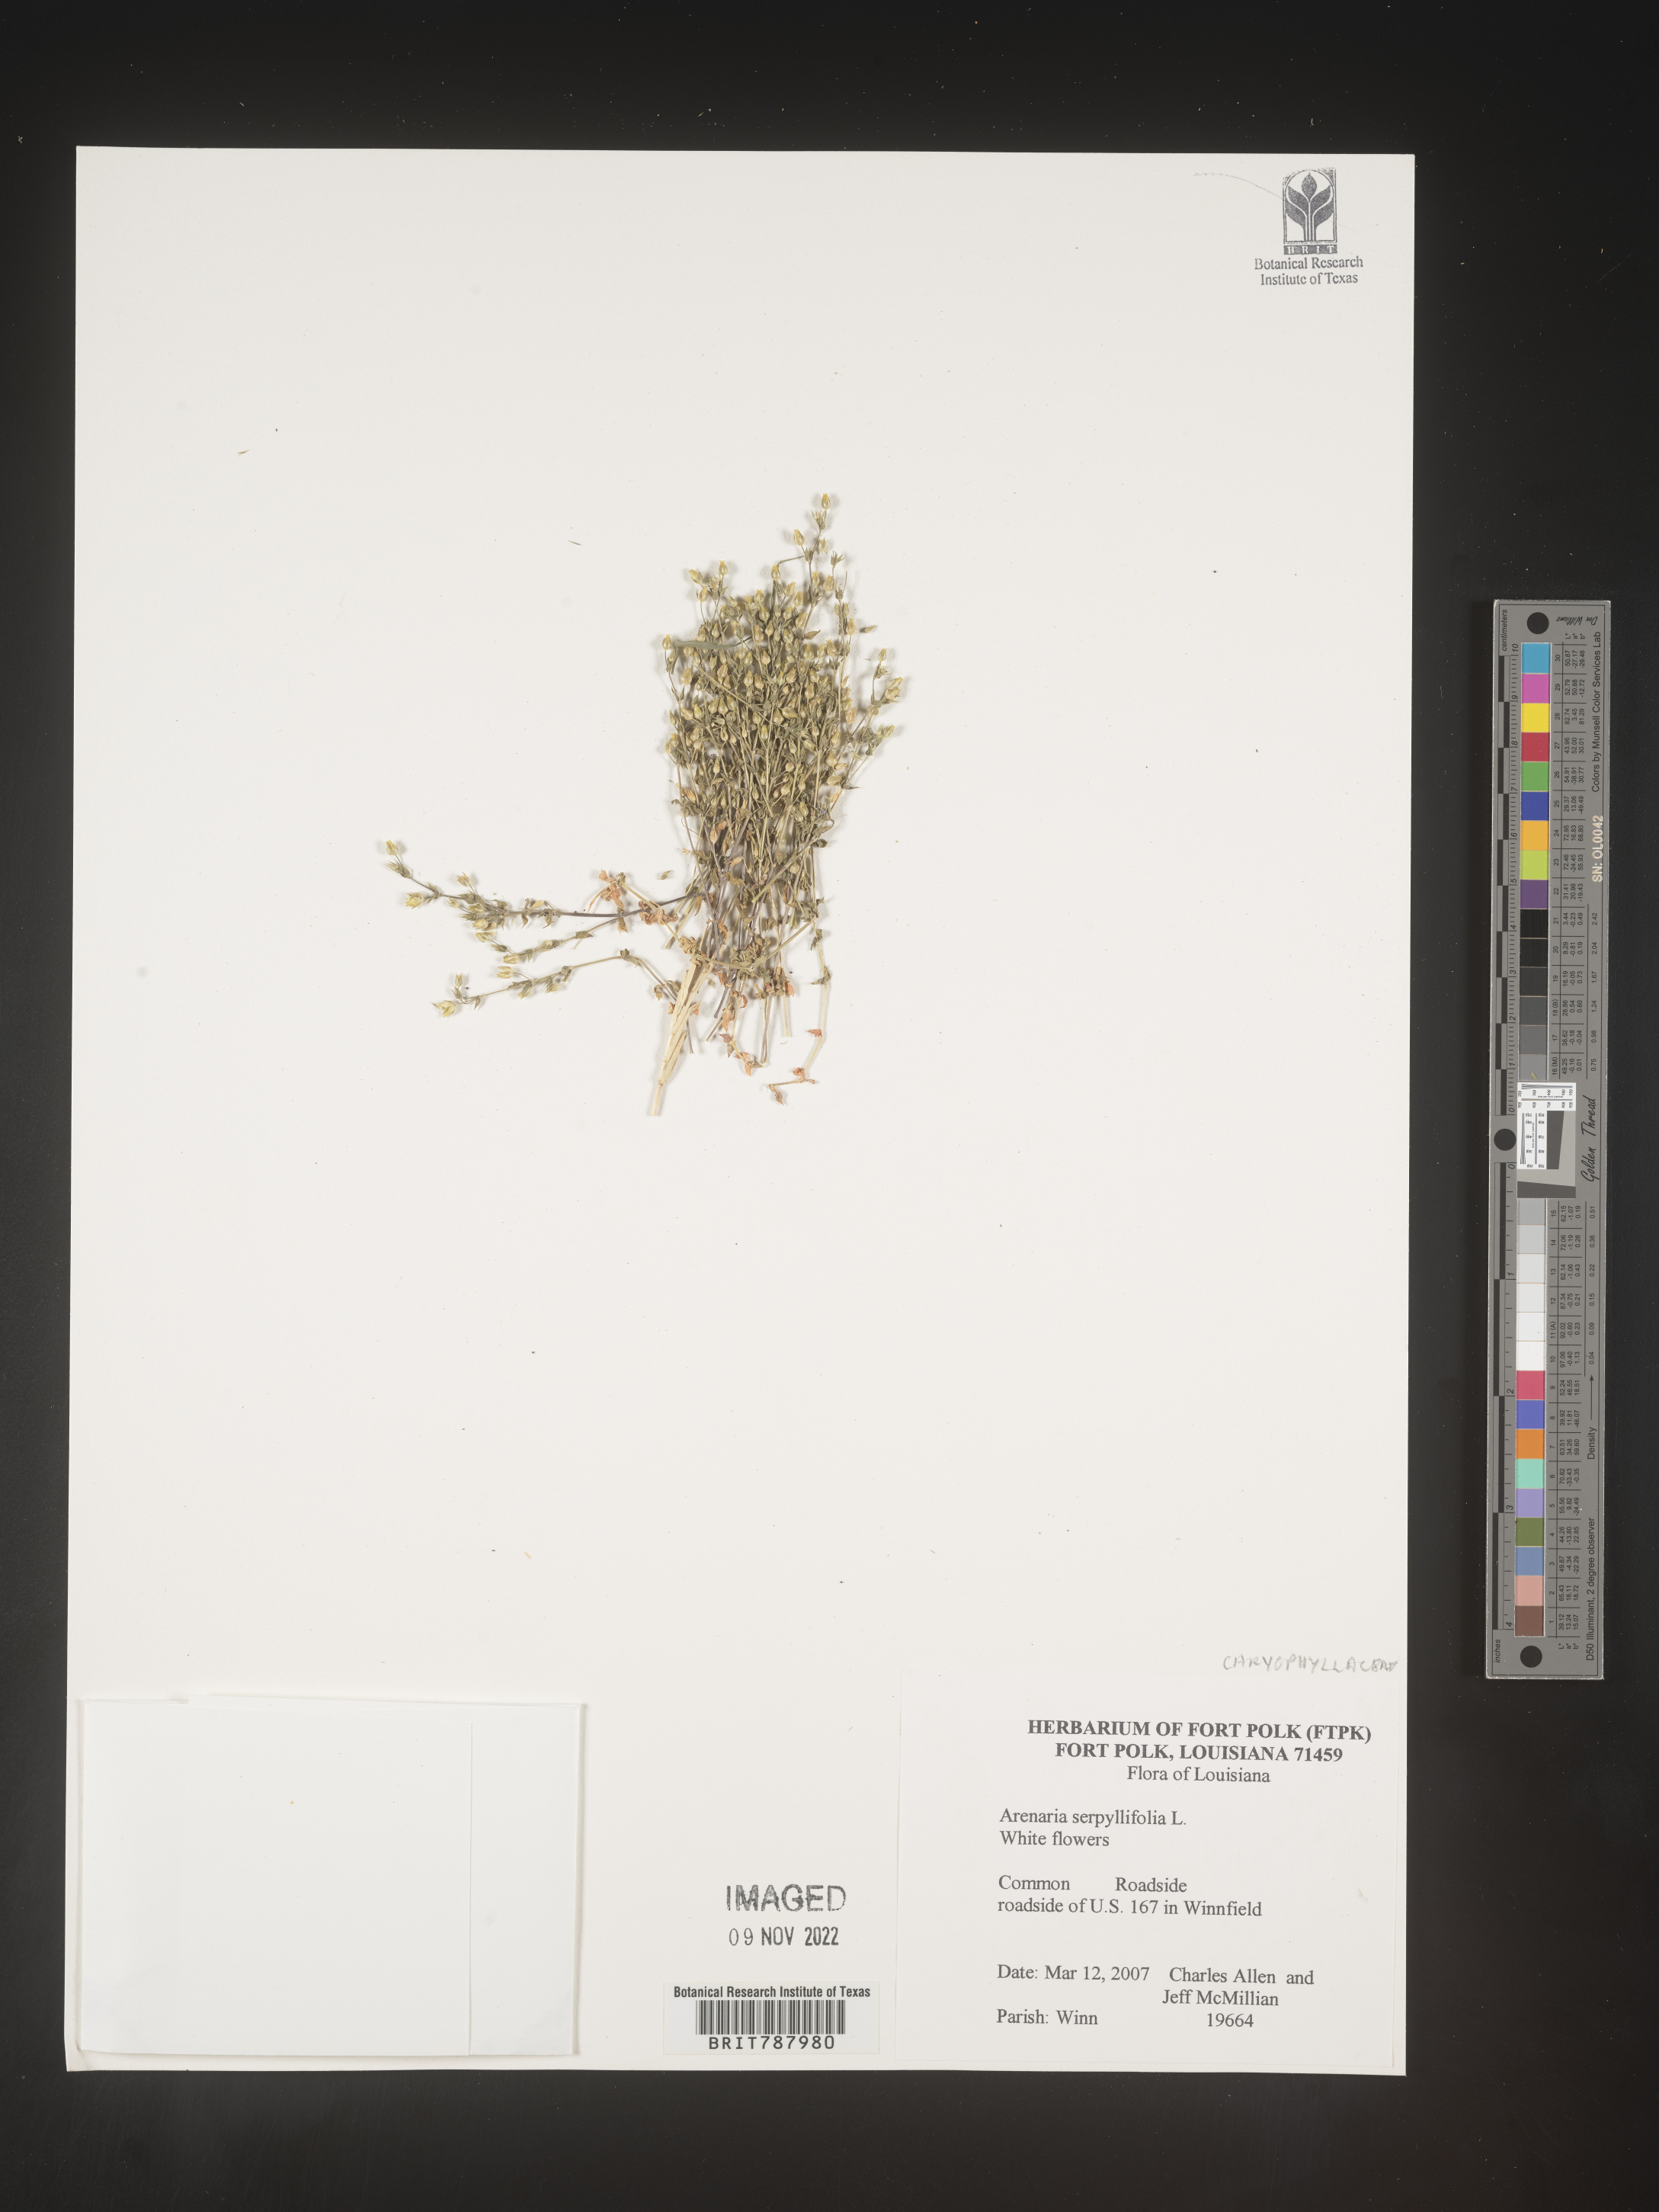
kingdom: Plantae
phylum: Tracheophyta
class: Magnoliopsida
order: Caryophyllales
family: Caryophyllaceae
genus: Arenaria
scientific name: Arenaria serpyllifolia
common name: Thyme-leaved sandwort
